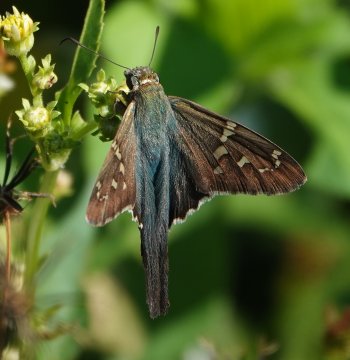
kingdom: Animalia
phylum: Arthropoda
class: Insecta
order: Lepidoptera
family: Hesperiidae
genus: Urbanus
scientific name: Urbanus proteus
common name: Long-tailed Skipper
